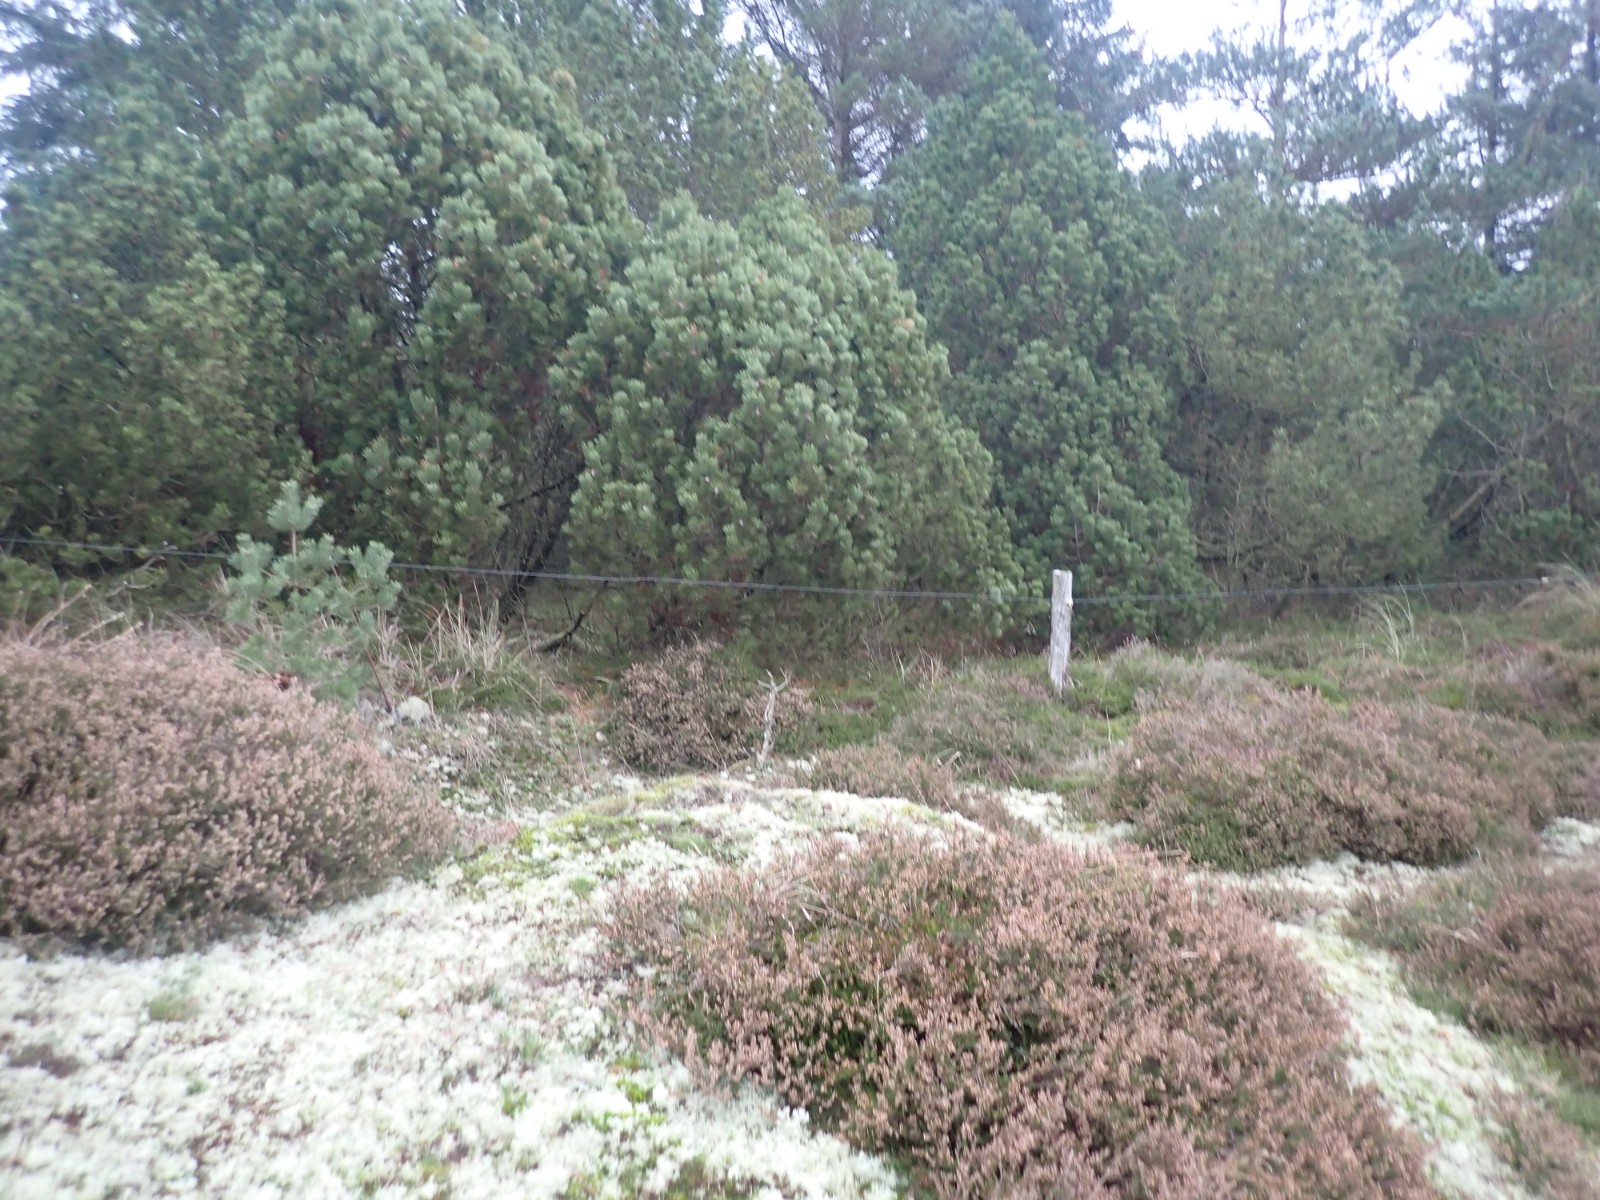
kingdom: Fungi
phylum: Basidiomycota
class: Agaricomycetes
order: Agaricales
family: Hygrophoraceae
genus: Hygrophorus
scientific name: Hygrophorus hypothejus
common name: frost-sneglehat
